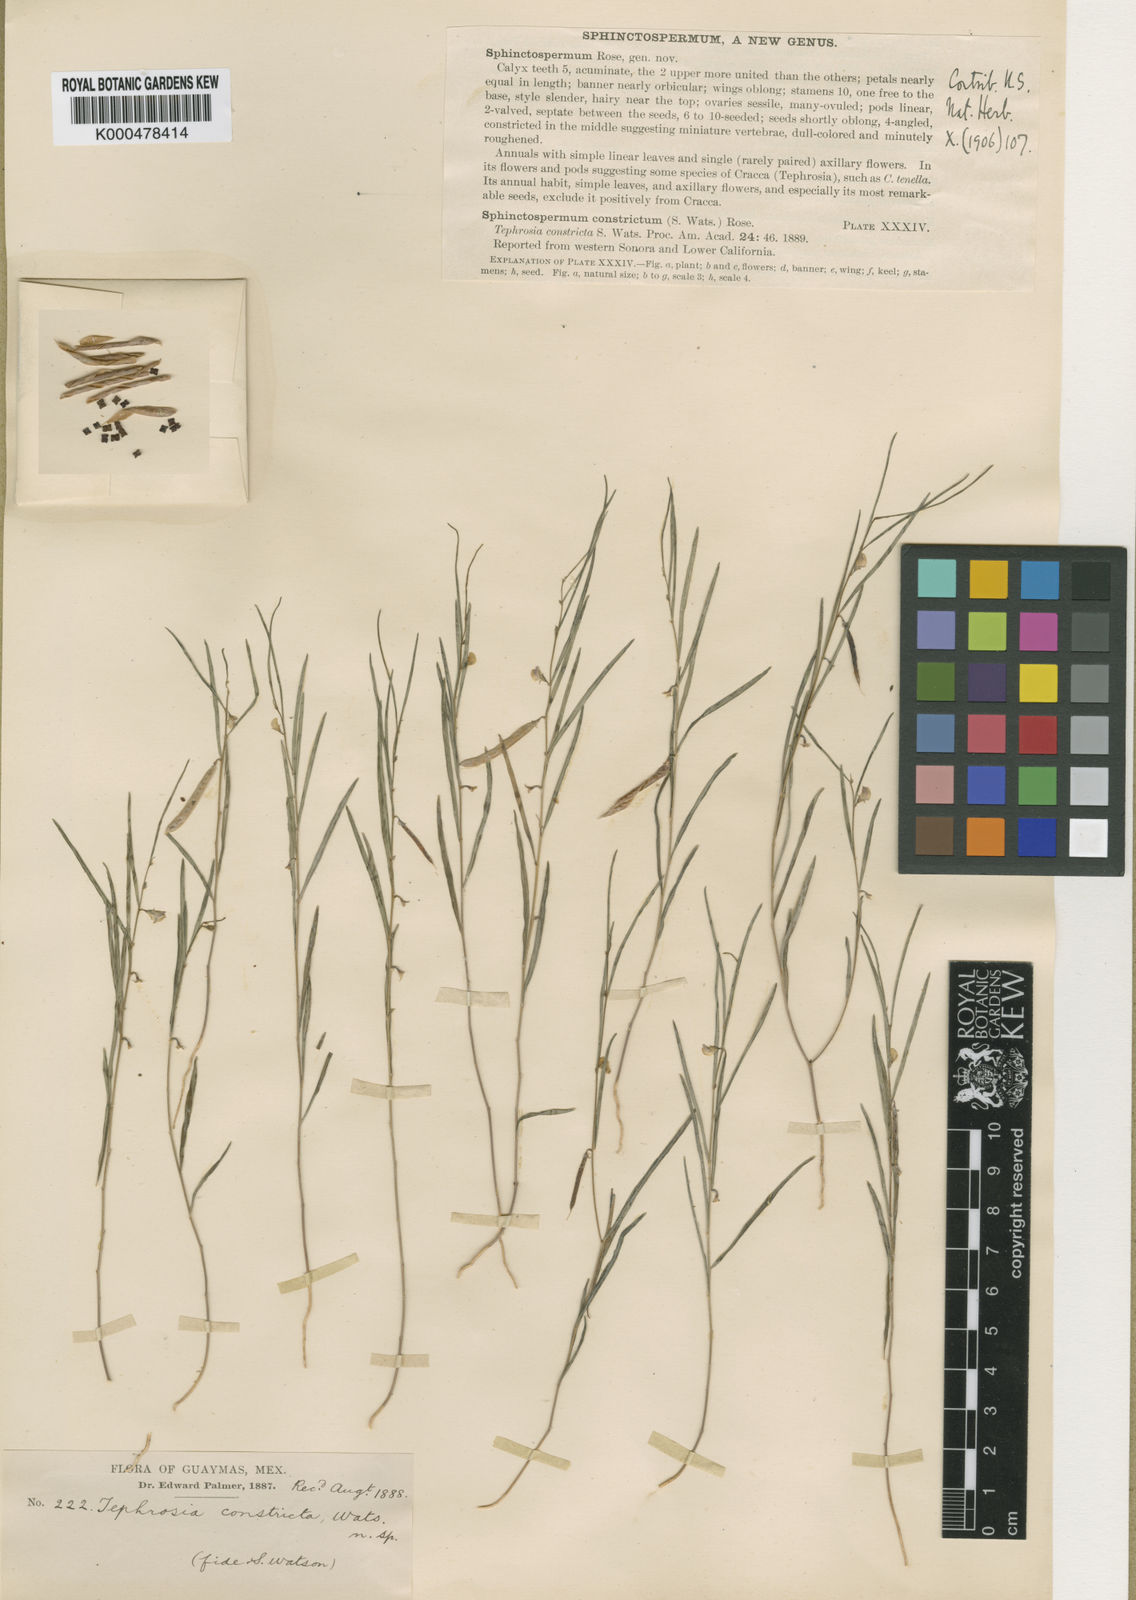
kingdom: Plantae
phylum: Tracheophyta
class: Magnoliopsida
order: Fabales
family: Fabaceae
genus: Sphinctospermum
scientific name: Sphinctospermum constrictum
